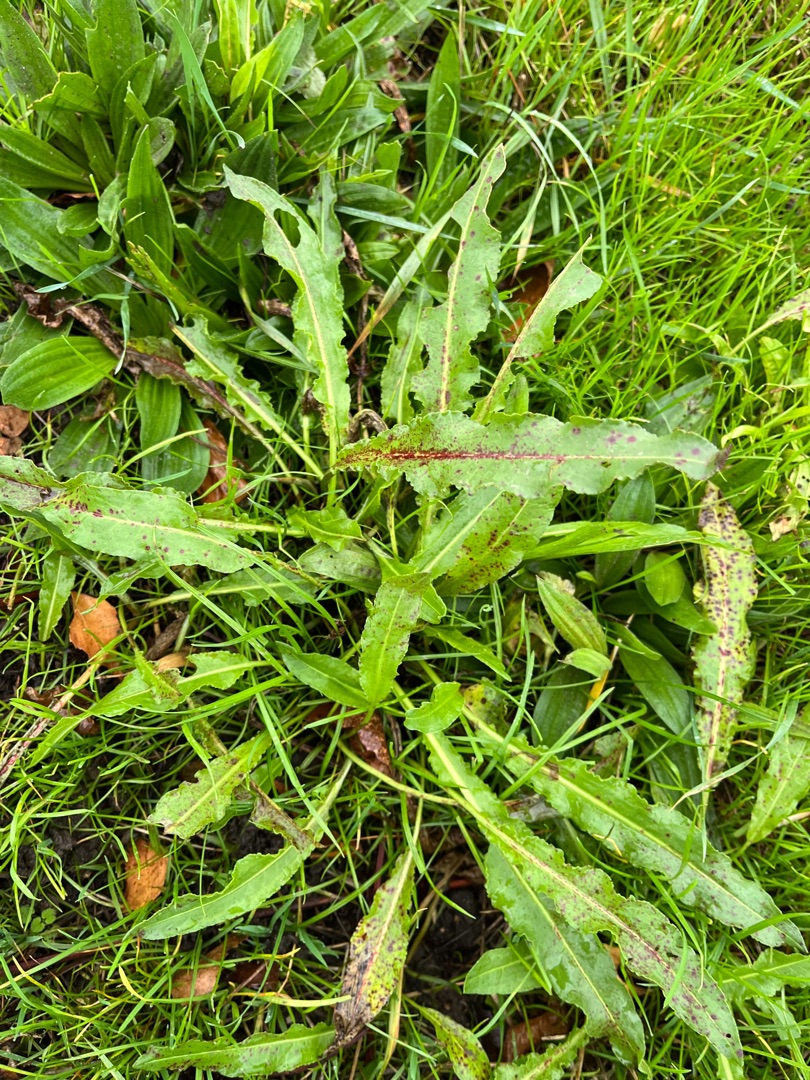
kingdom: Plantae
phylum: Tracheophyta
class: Magnoliopsida
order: Caryophyllales
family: Polygonaceae
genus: Rumex
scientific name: Rumex crispus
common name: Kruset skræppe
